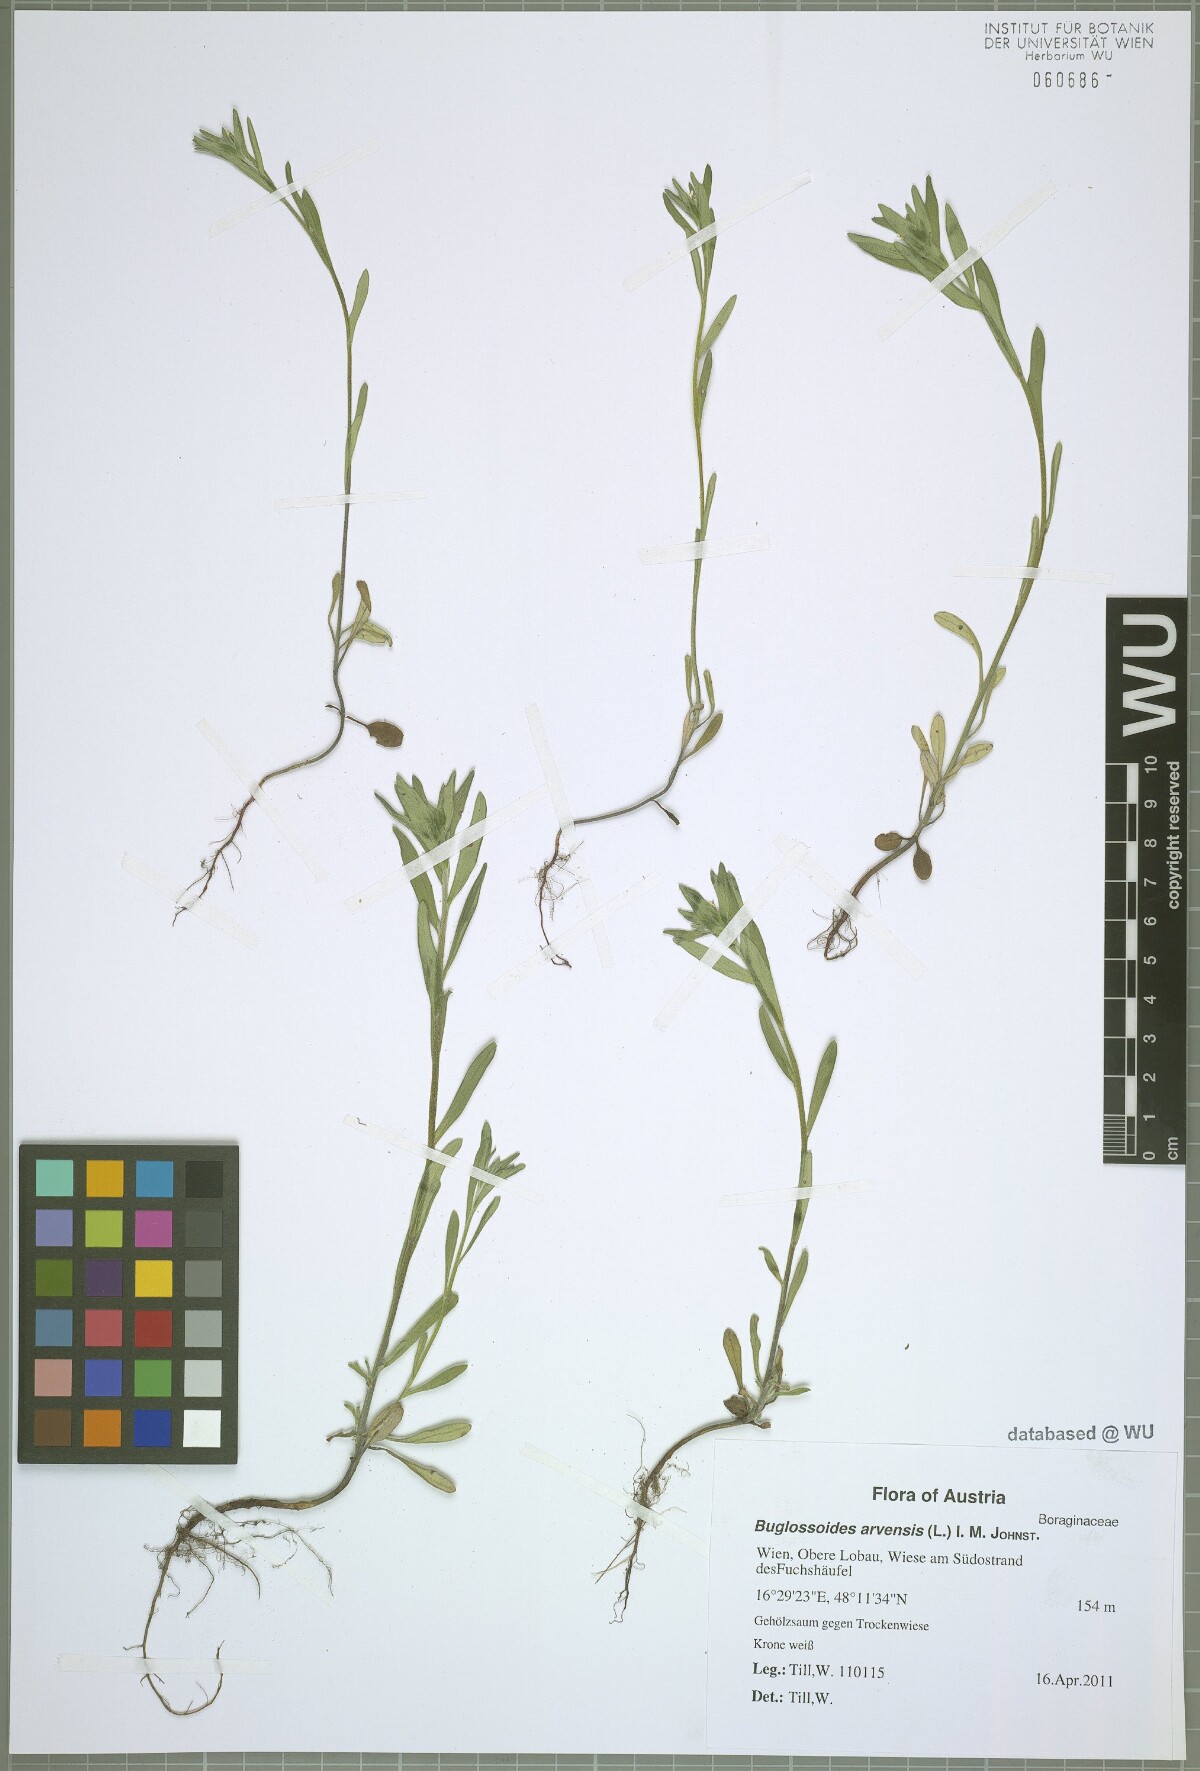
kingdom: Plantae
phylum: Tracheophyta
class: Magnoliopsida
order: Boraginales
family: Boraginaceae
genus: Buglossoides
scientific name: Buglossoides arvensis
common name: Corn gromwell
